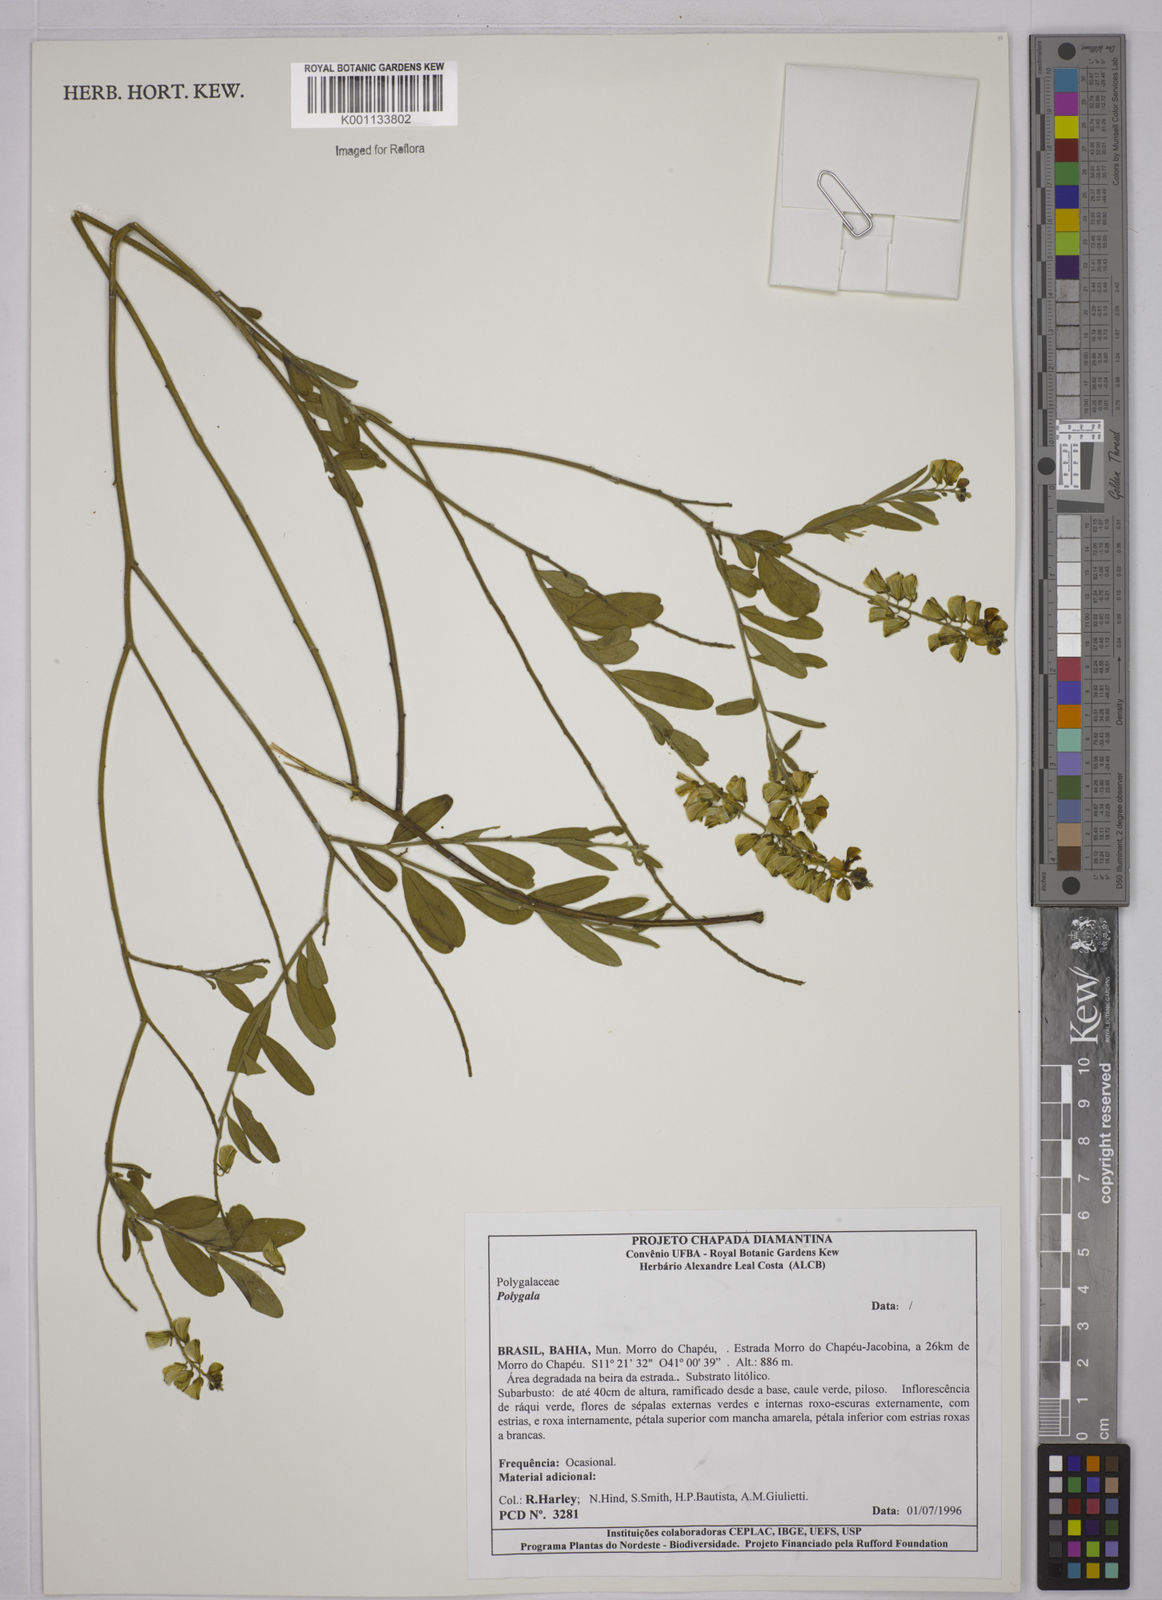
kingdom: Plantae
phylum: Tracheophyta
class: Magnoliopsida
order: Fabales
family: Polygalaceae
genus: Polygala
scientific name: Polygala
